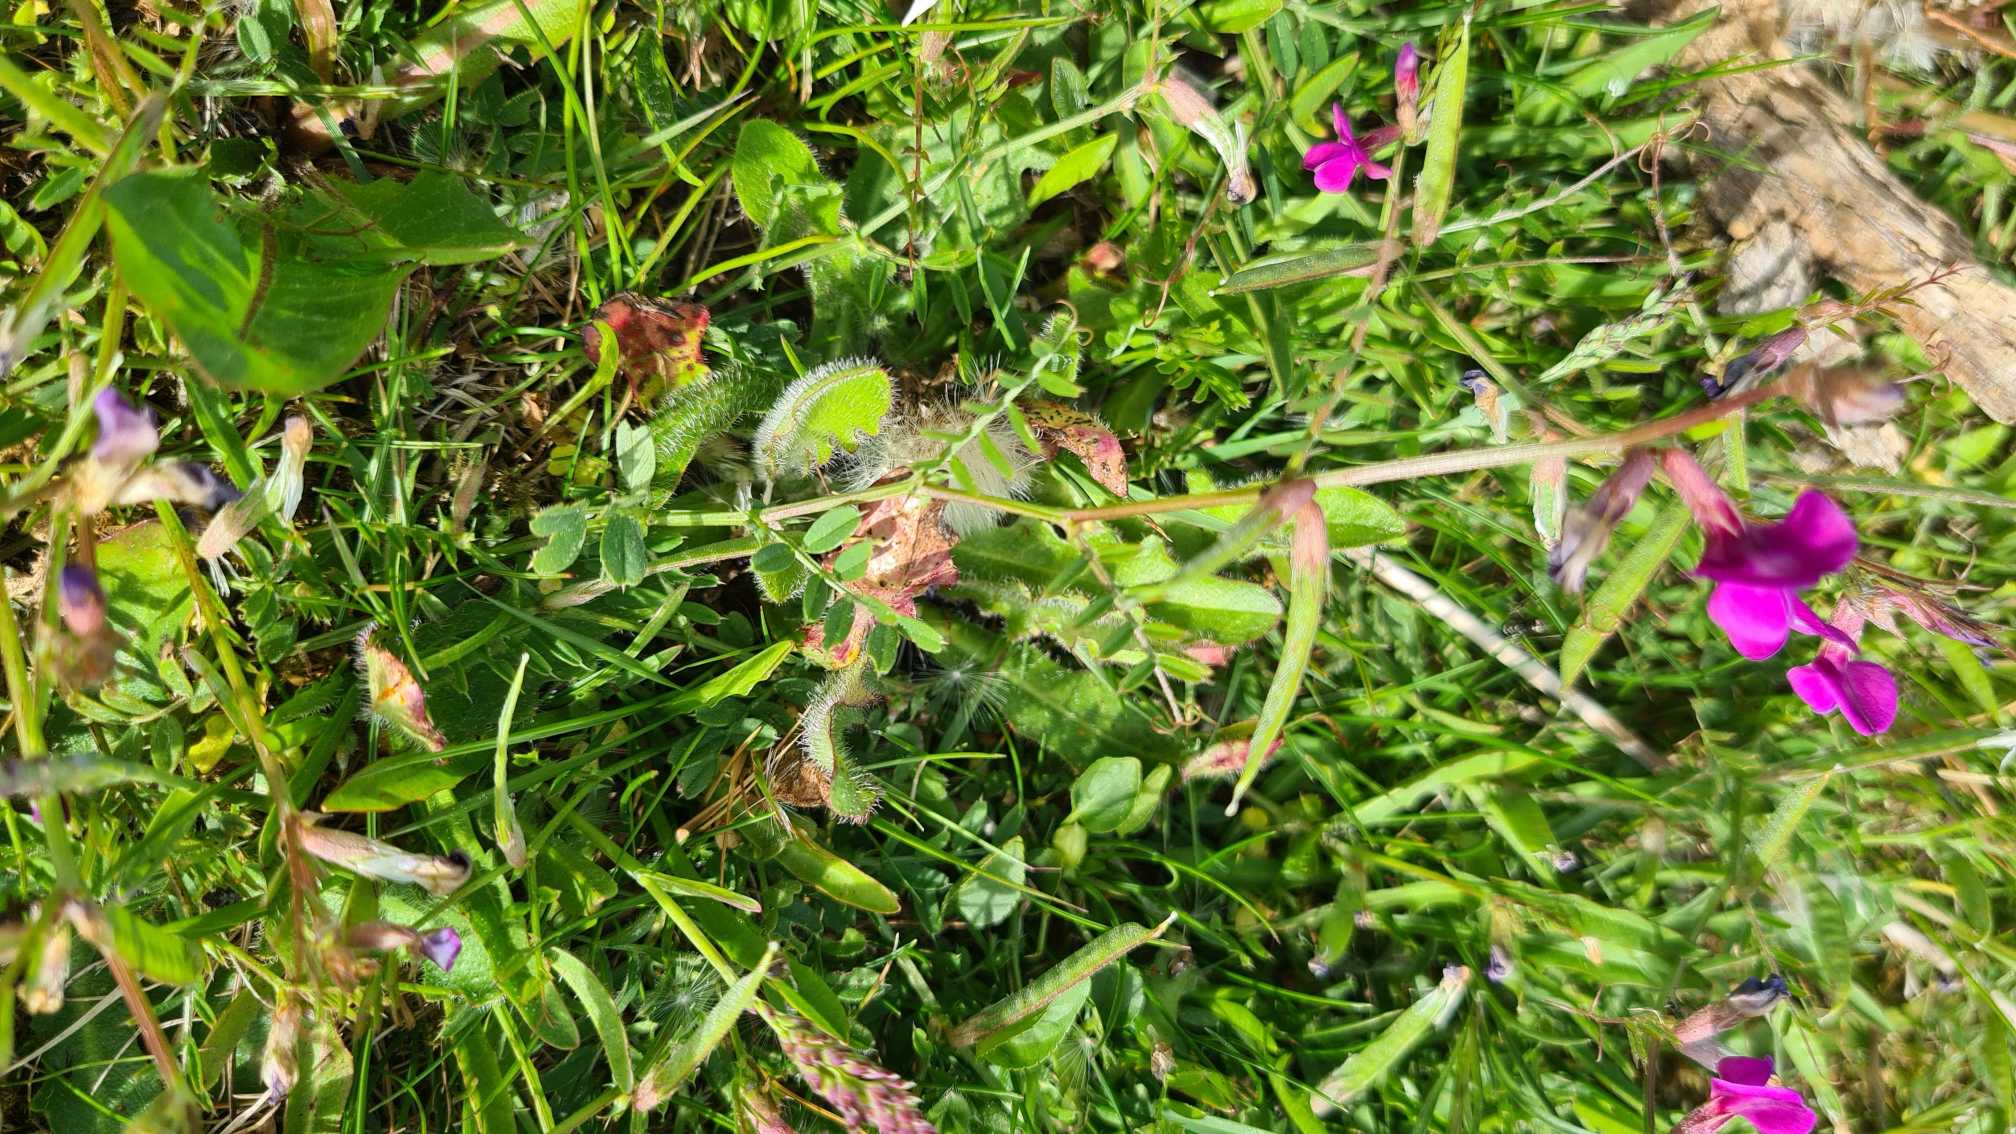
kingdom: Plantae
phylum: Tracheophyta
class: Magnoliopsida
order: Fabales
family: Fabaceae
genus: Vicia
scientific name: Vicia sativa
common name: Smalbladet vikke
